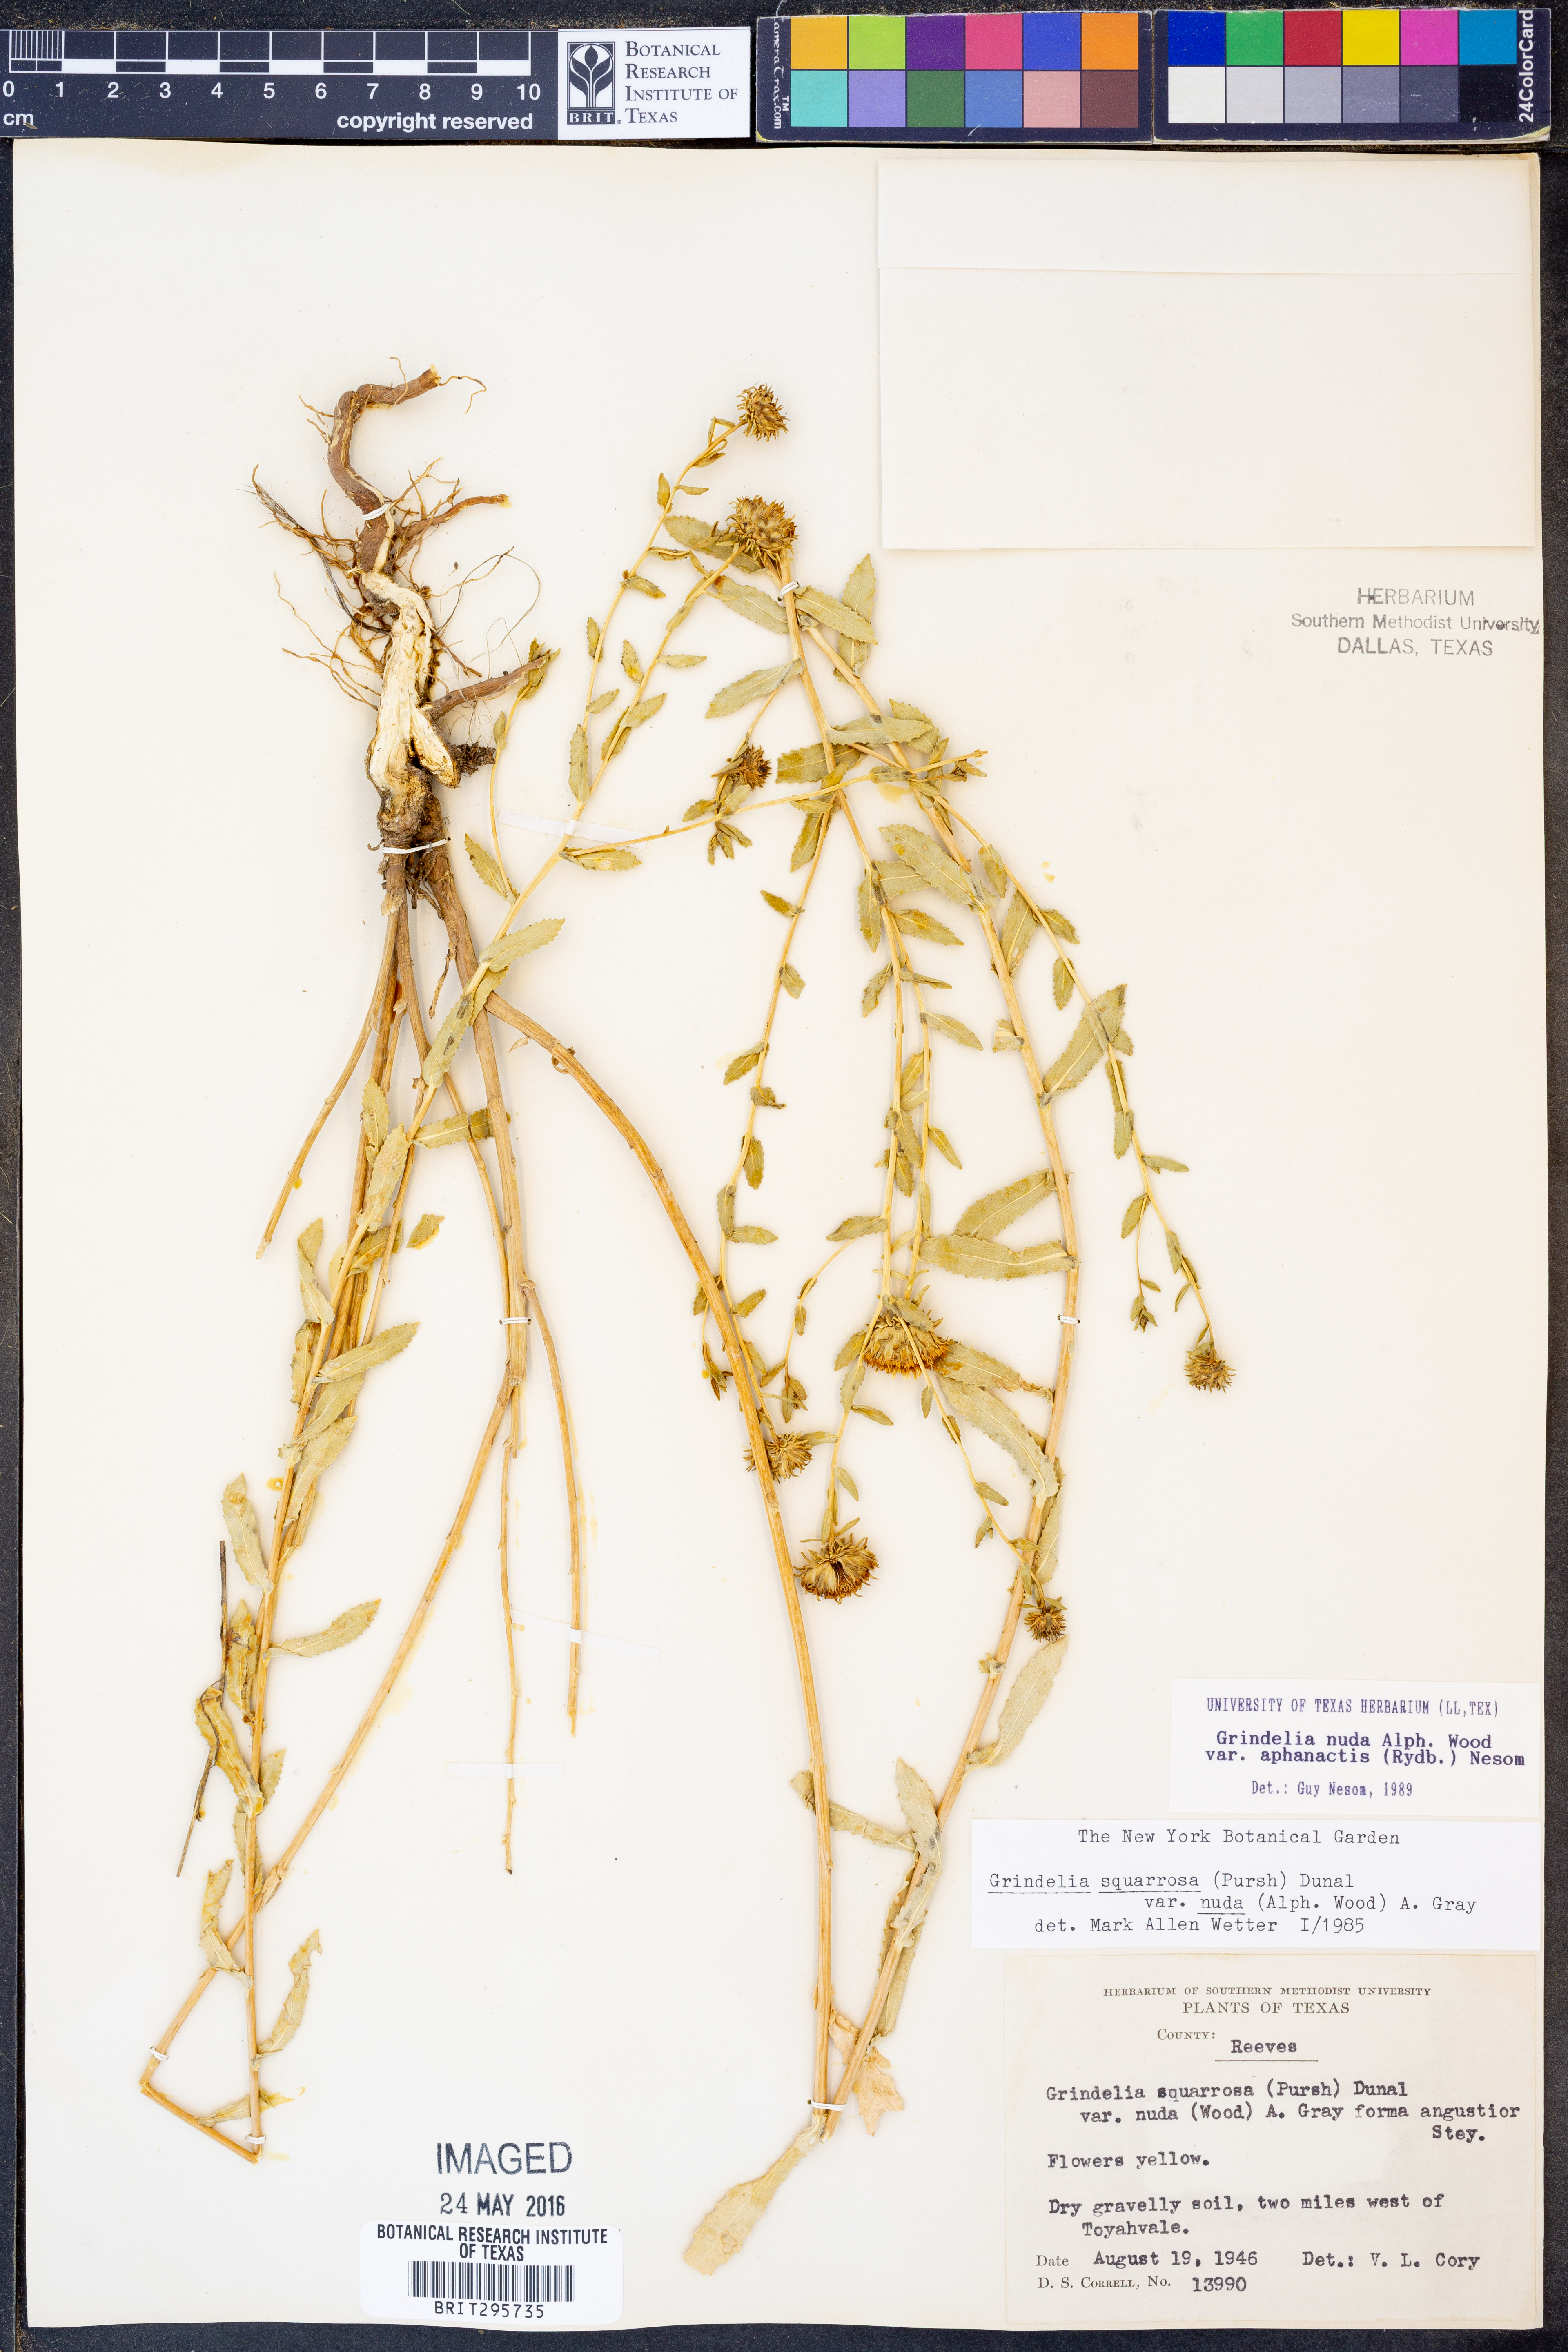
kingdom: Plantae
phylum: Tracheophyta
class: Magnoliopsida
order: Asterales
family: Asteraceae
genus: Grindelia
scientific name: Grindelia nuda
